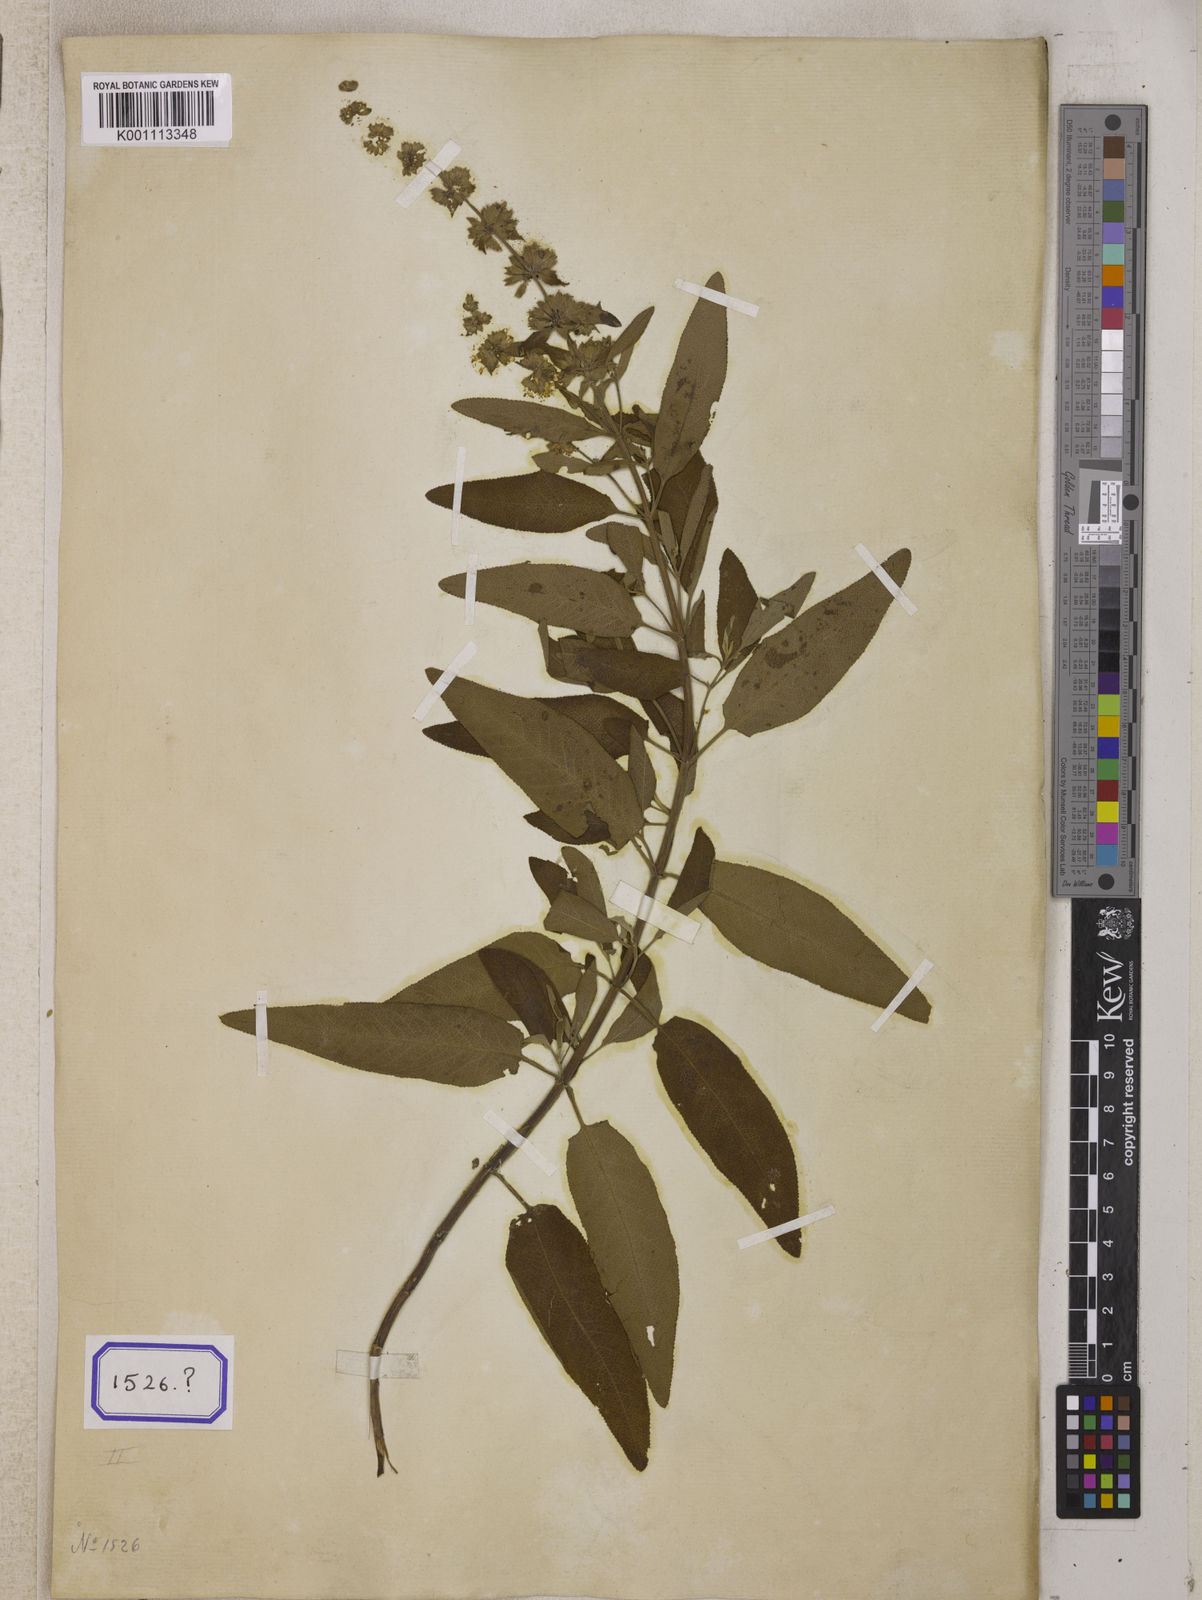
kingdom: Plantae
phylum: Tracheophyta
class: Magnoliopsida
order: Lamiales
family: Lamiaceae
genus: Salvia
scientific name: Salvia dianthera
